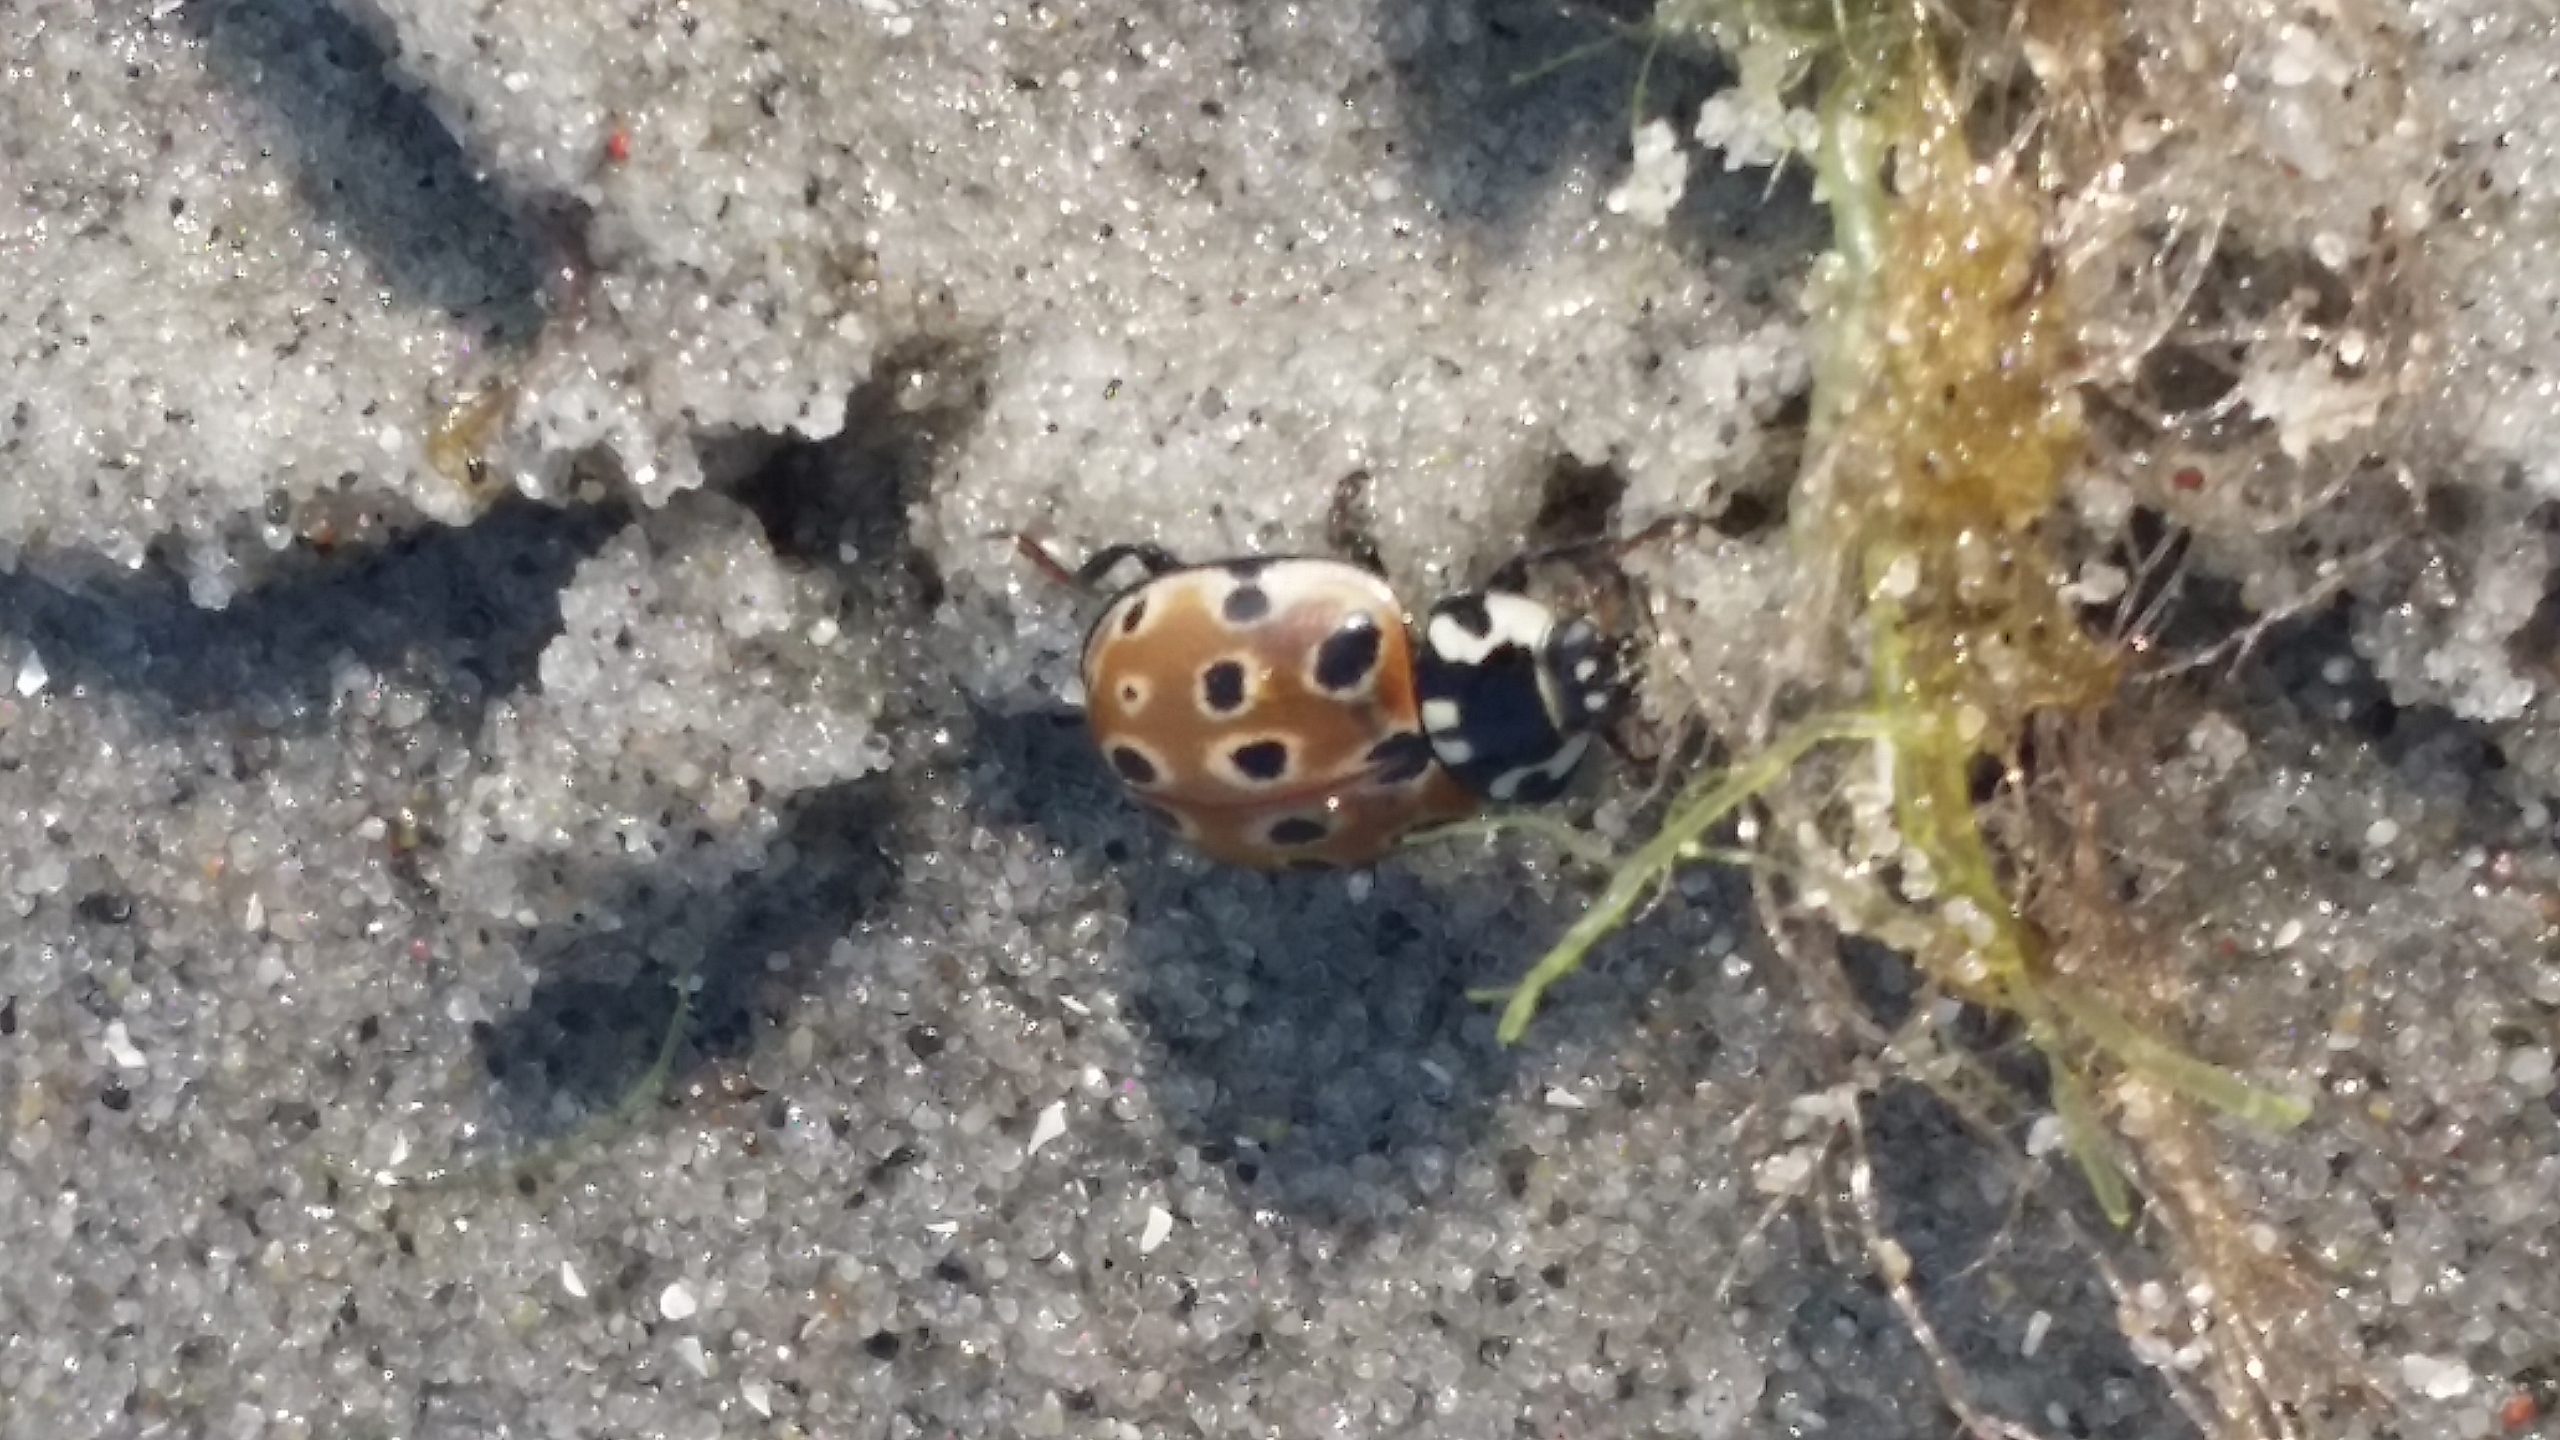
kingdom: Animalia
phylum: Arthropoda
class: Insecta
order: Coleoptera
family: Coccinellidae
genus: Anatis
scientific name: Anatis ocellata
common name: Øjeplettet mariehøne
